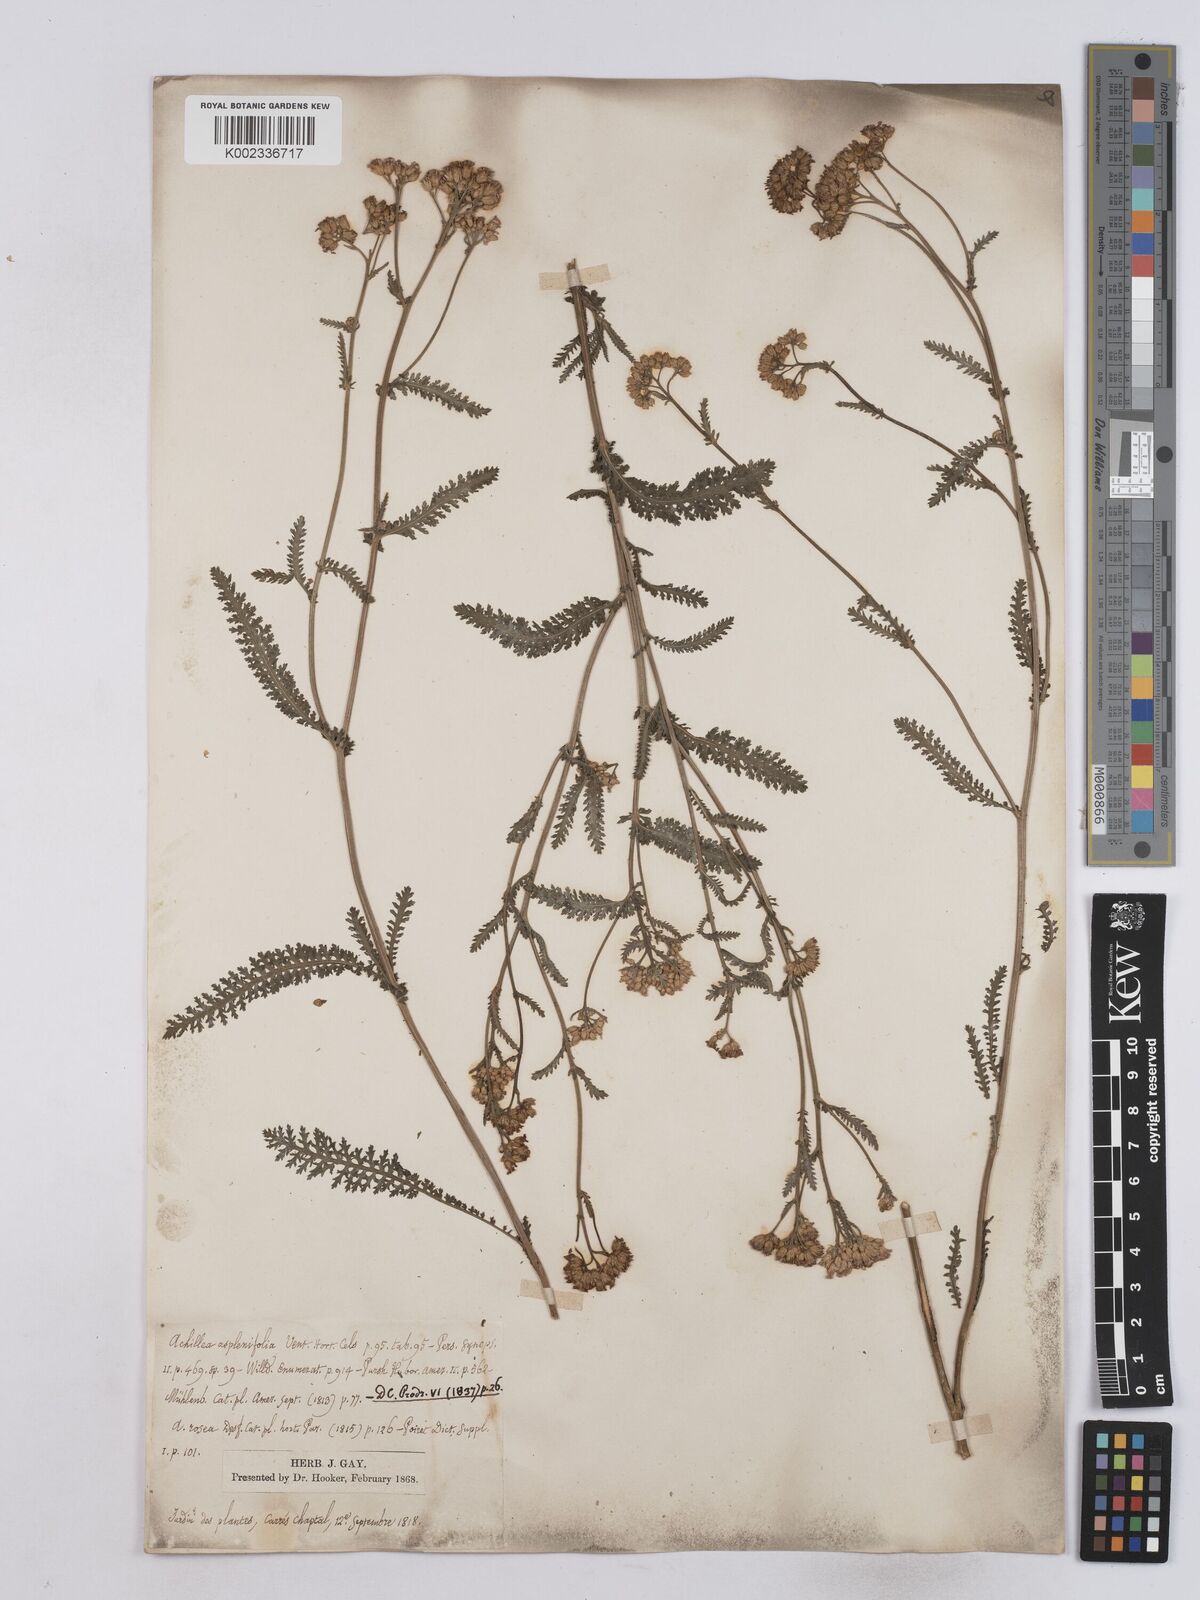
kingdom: Plantae
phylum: Tracheophyta
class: Magnoliopsida
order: Asterales
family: Asteraceae
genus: Achillea
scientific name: Achillea aspleniifolia
